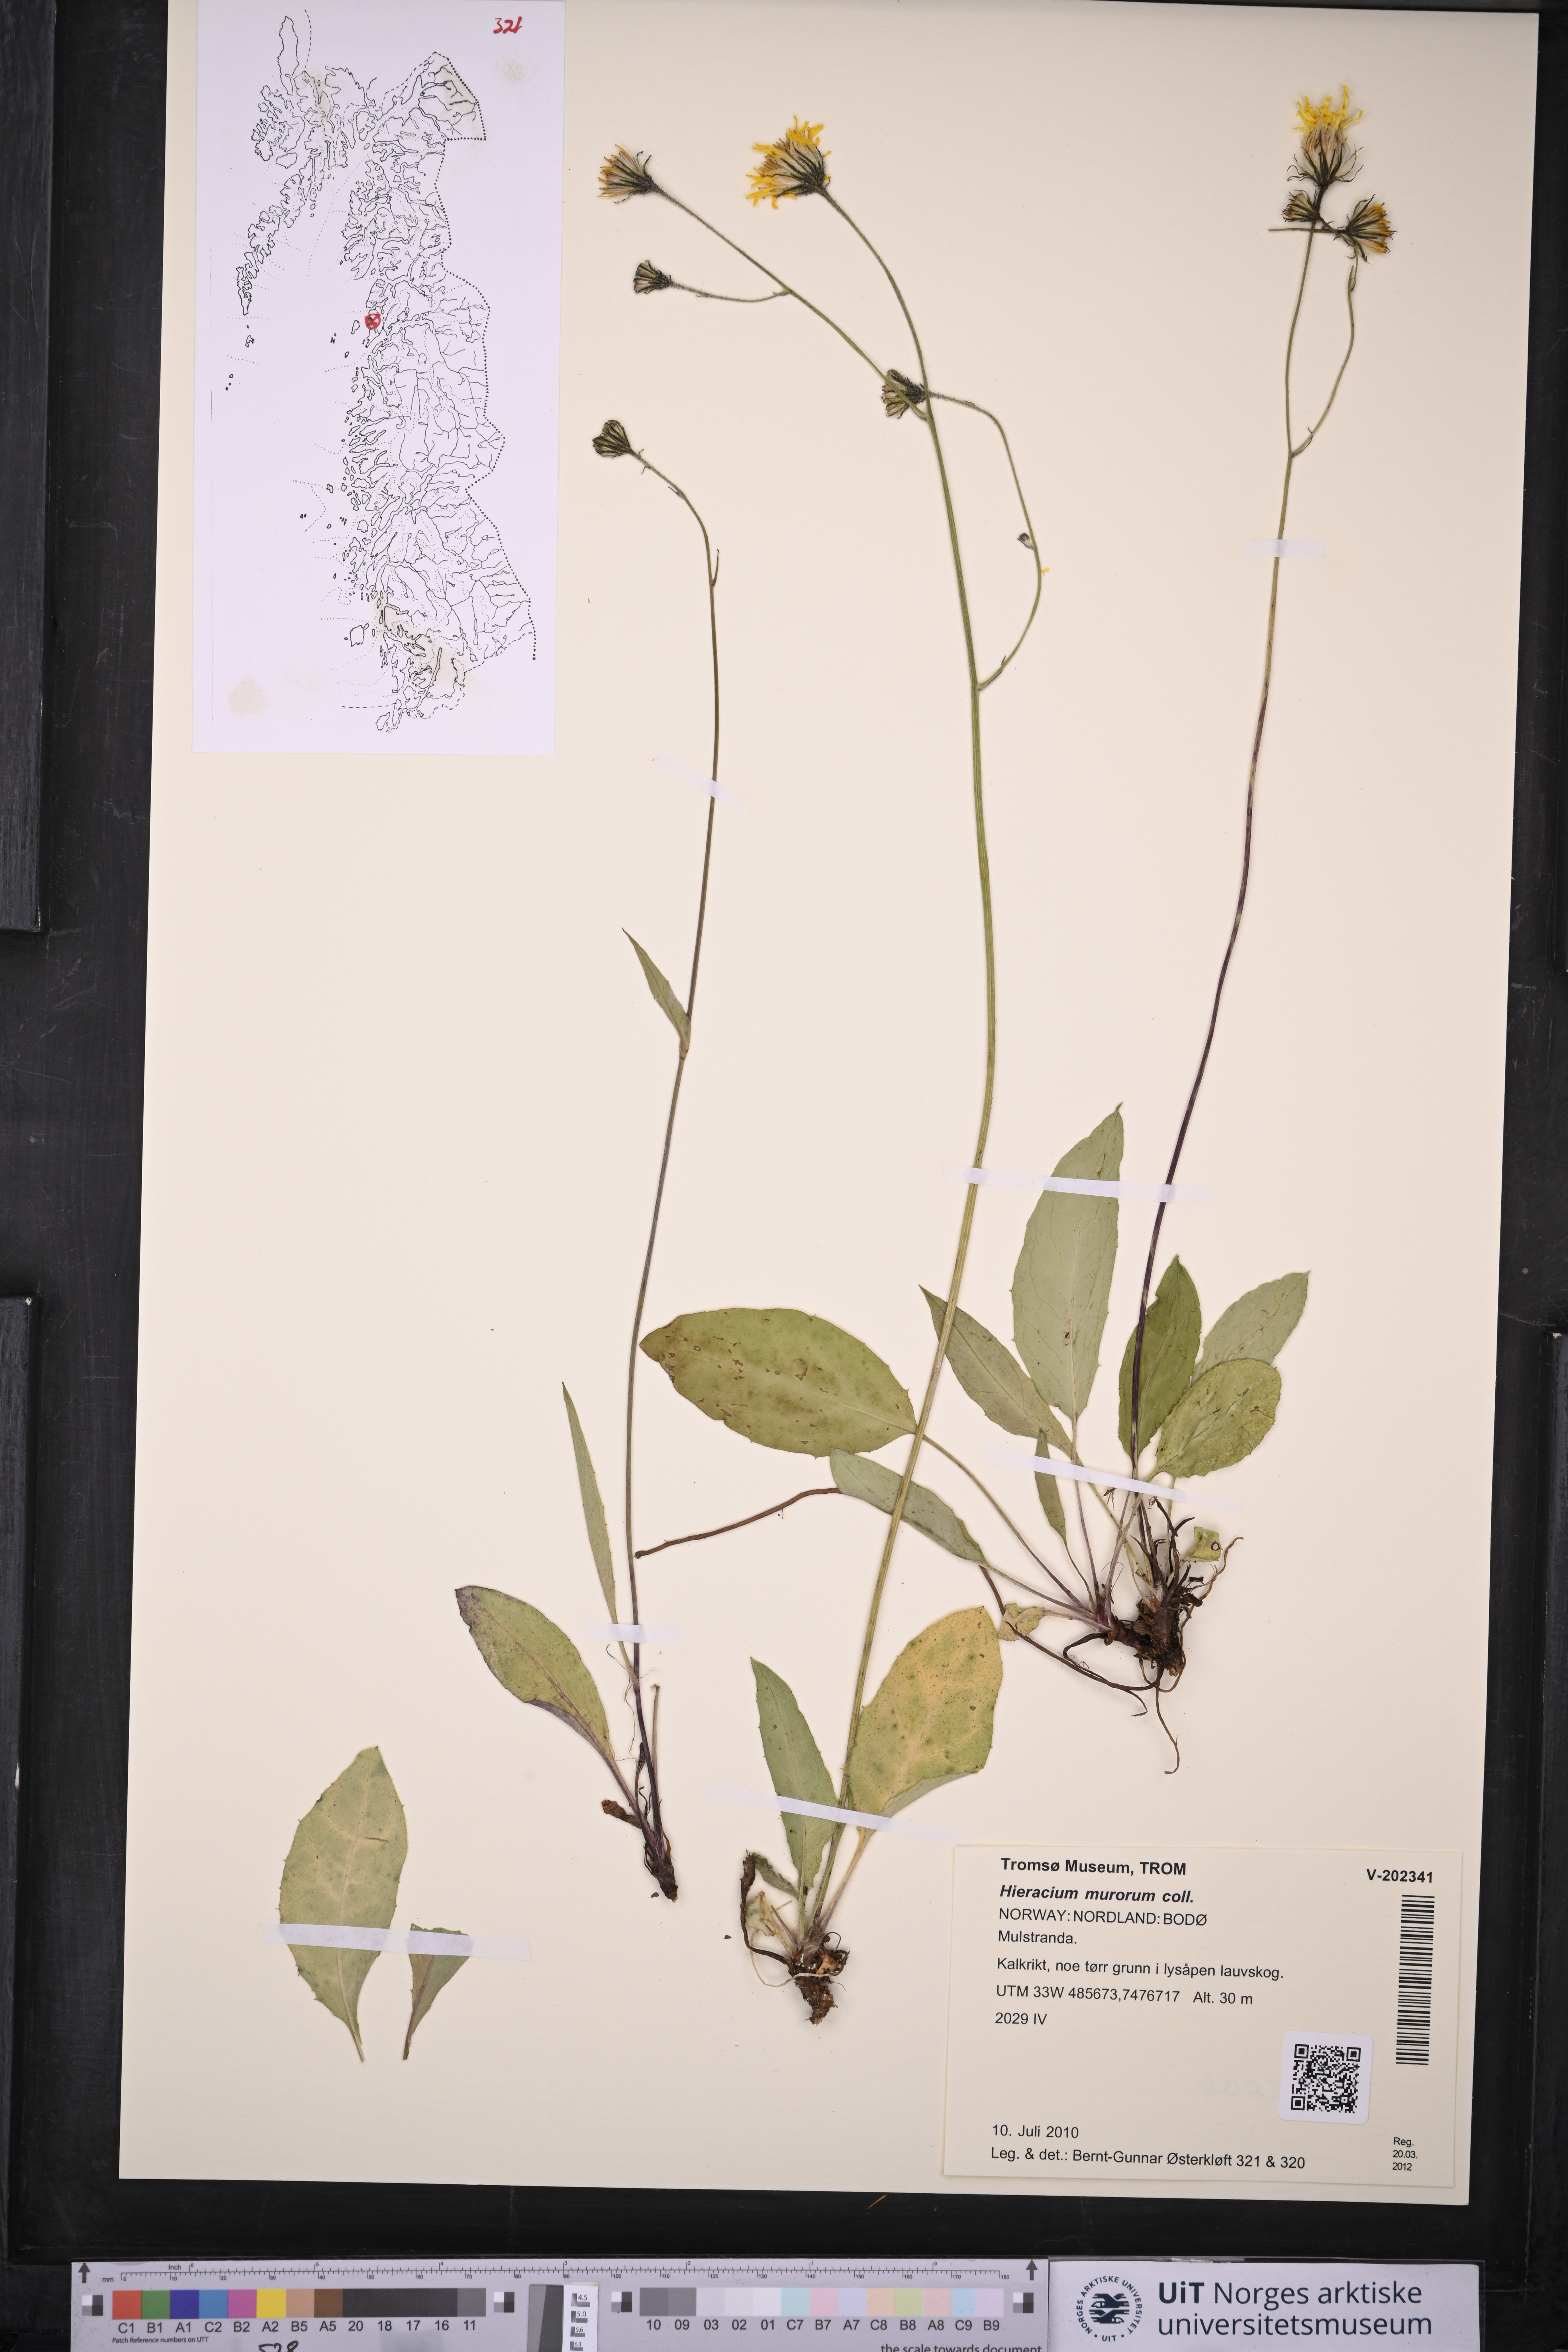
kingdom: Plantae
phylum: Tracheophyta
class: Magnoliopsida
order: Asterales
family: Asteraceae
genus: Hieracium
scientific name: Hieracium murorum
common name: Wall hawkweed
